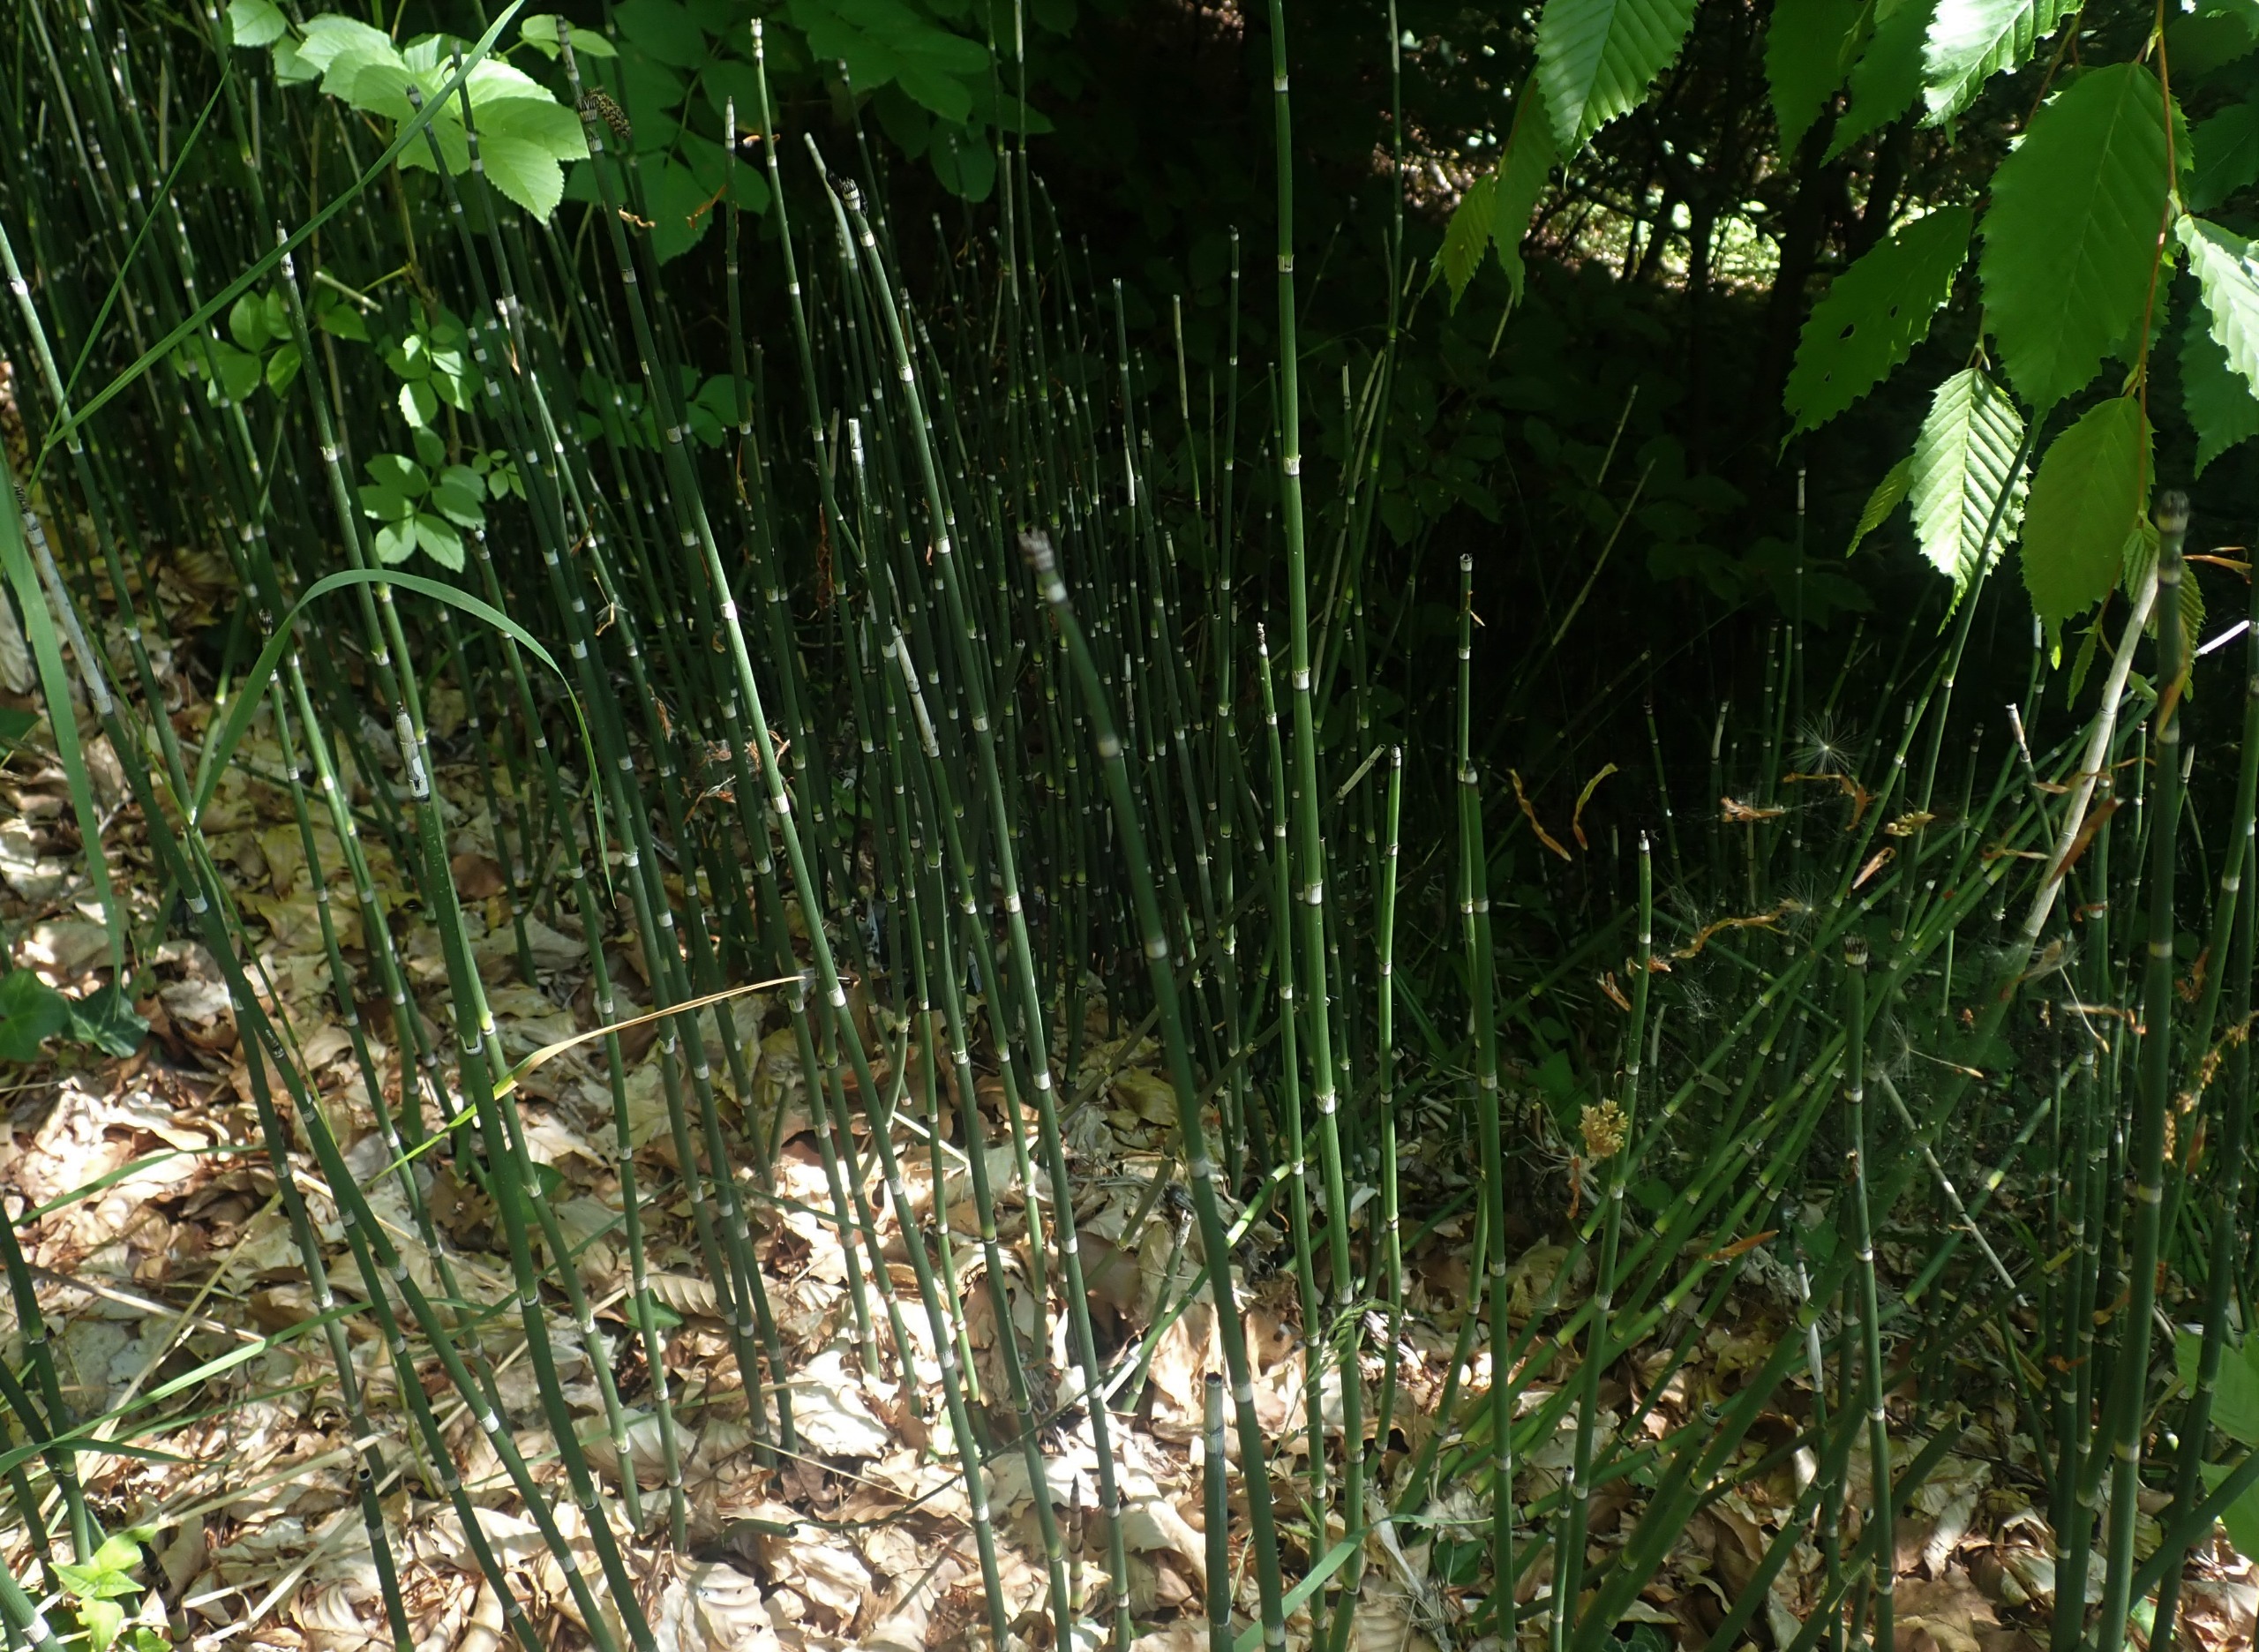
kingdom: Plantae
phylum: Tracheophyta
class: Polypodiopsida
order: Equisetales
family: Equisetaceae
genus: Equisetum
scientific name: Equisetum hyemale
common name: Skavgræs
